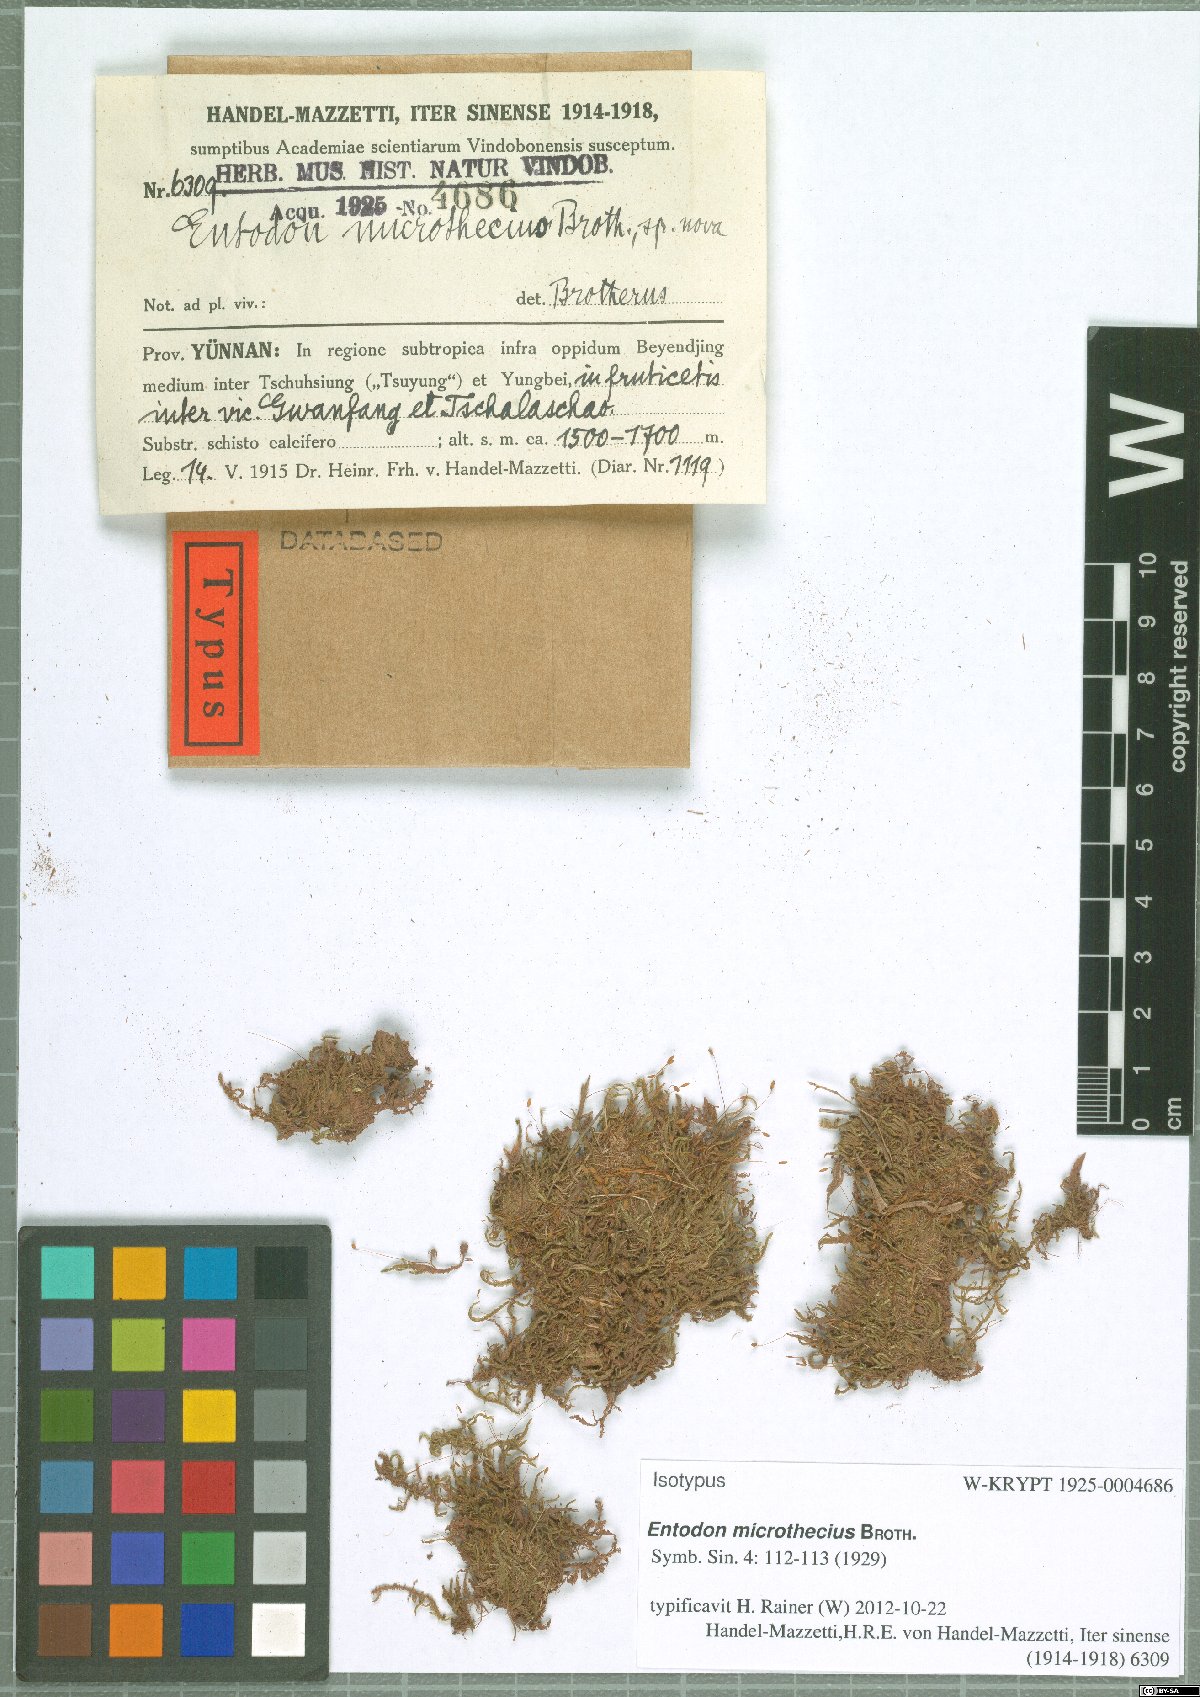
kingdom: Plantae
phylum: Bryophyta
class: Bryopsida
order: Hypnales
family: Entodontaceae
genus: Entodon
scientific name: Entodon challengeri
